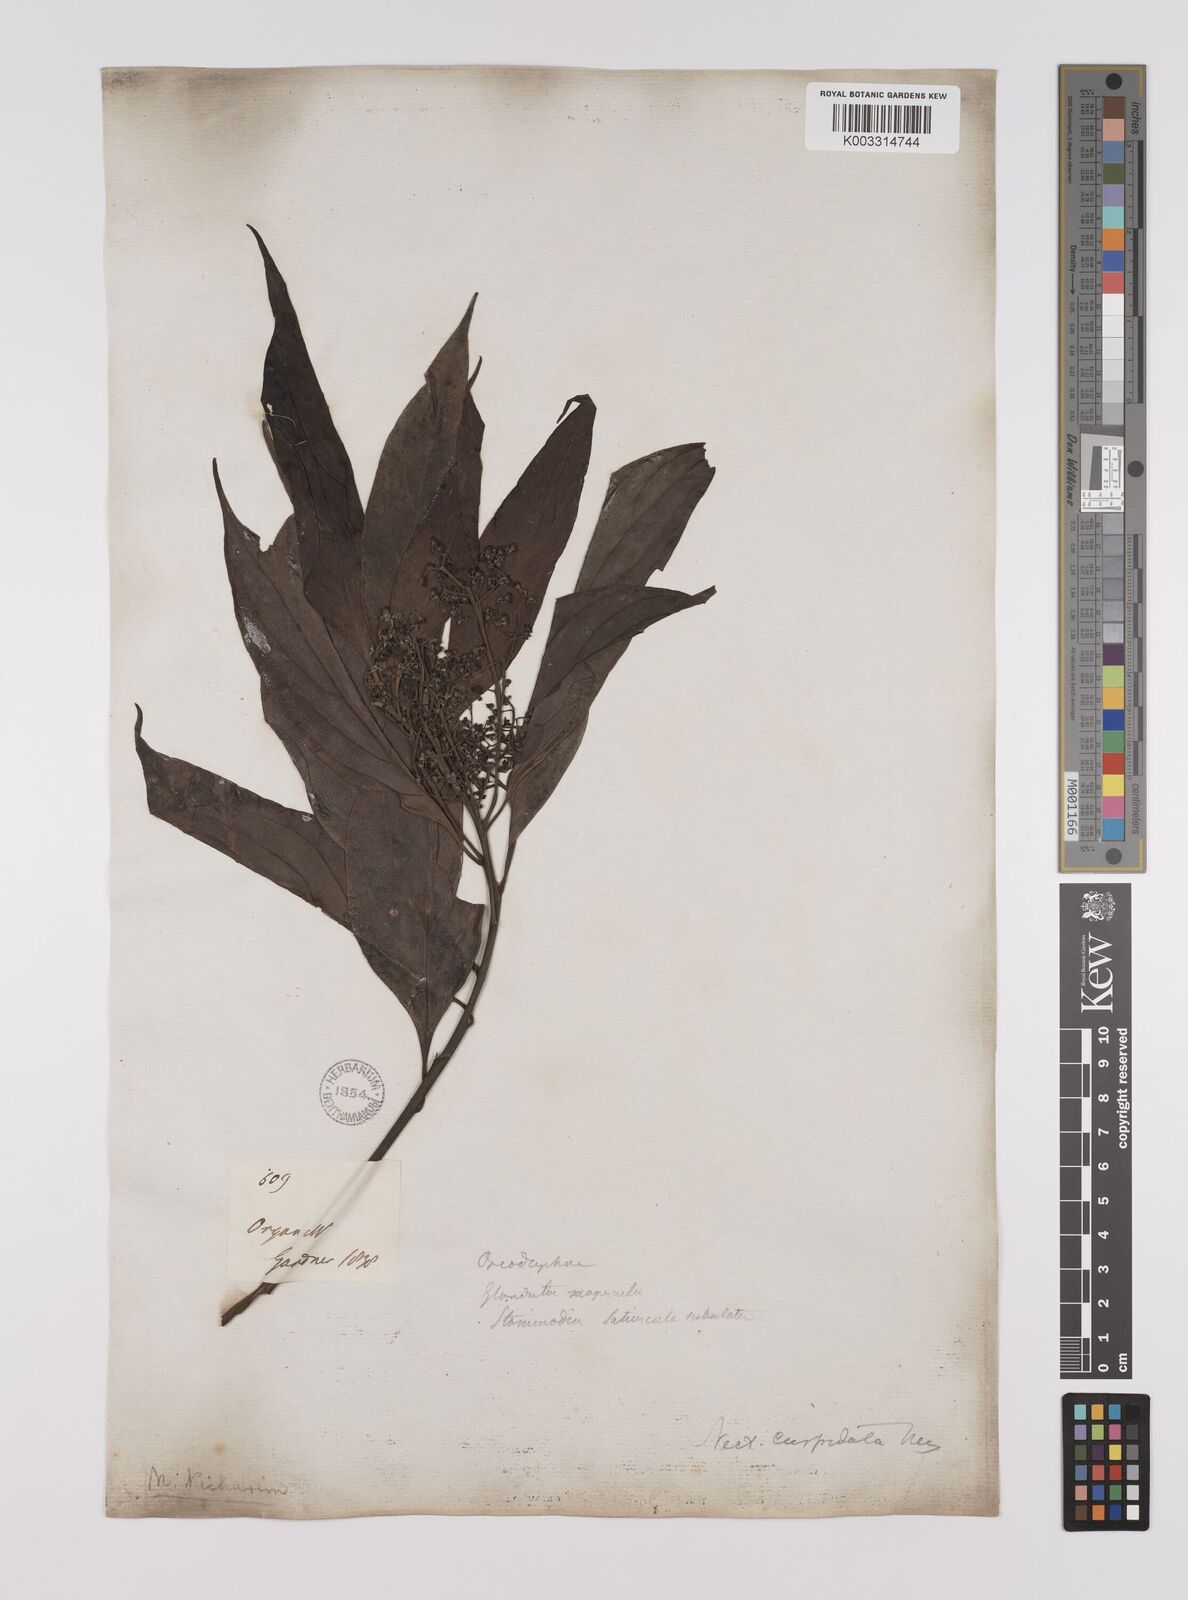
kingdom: Plantae
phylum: Tracheophyta
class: Magnoliopsida
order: Laurales
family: Lauraceae
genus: Nectandra
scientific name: Nectandra cuspidata
